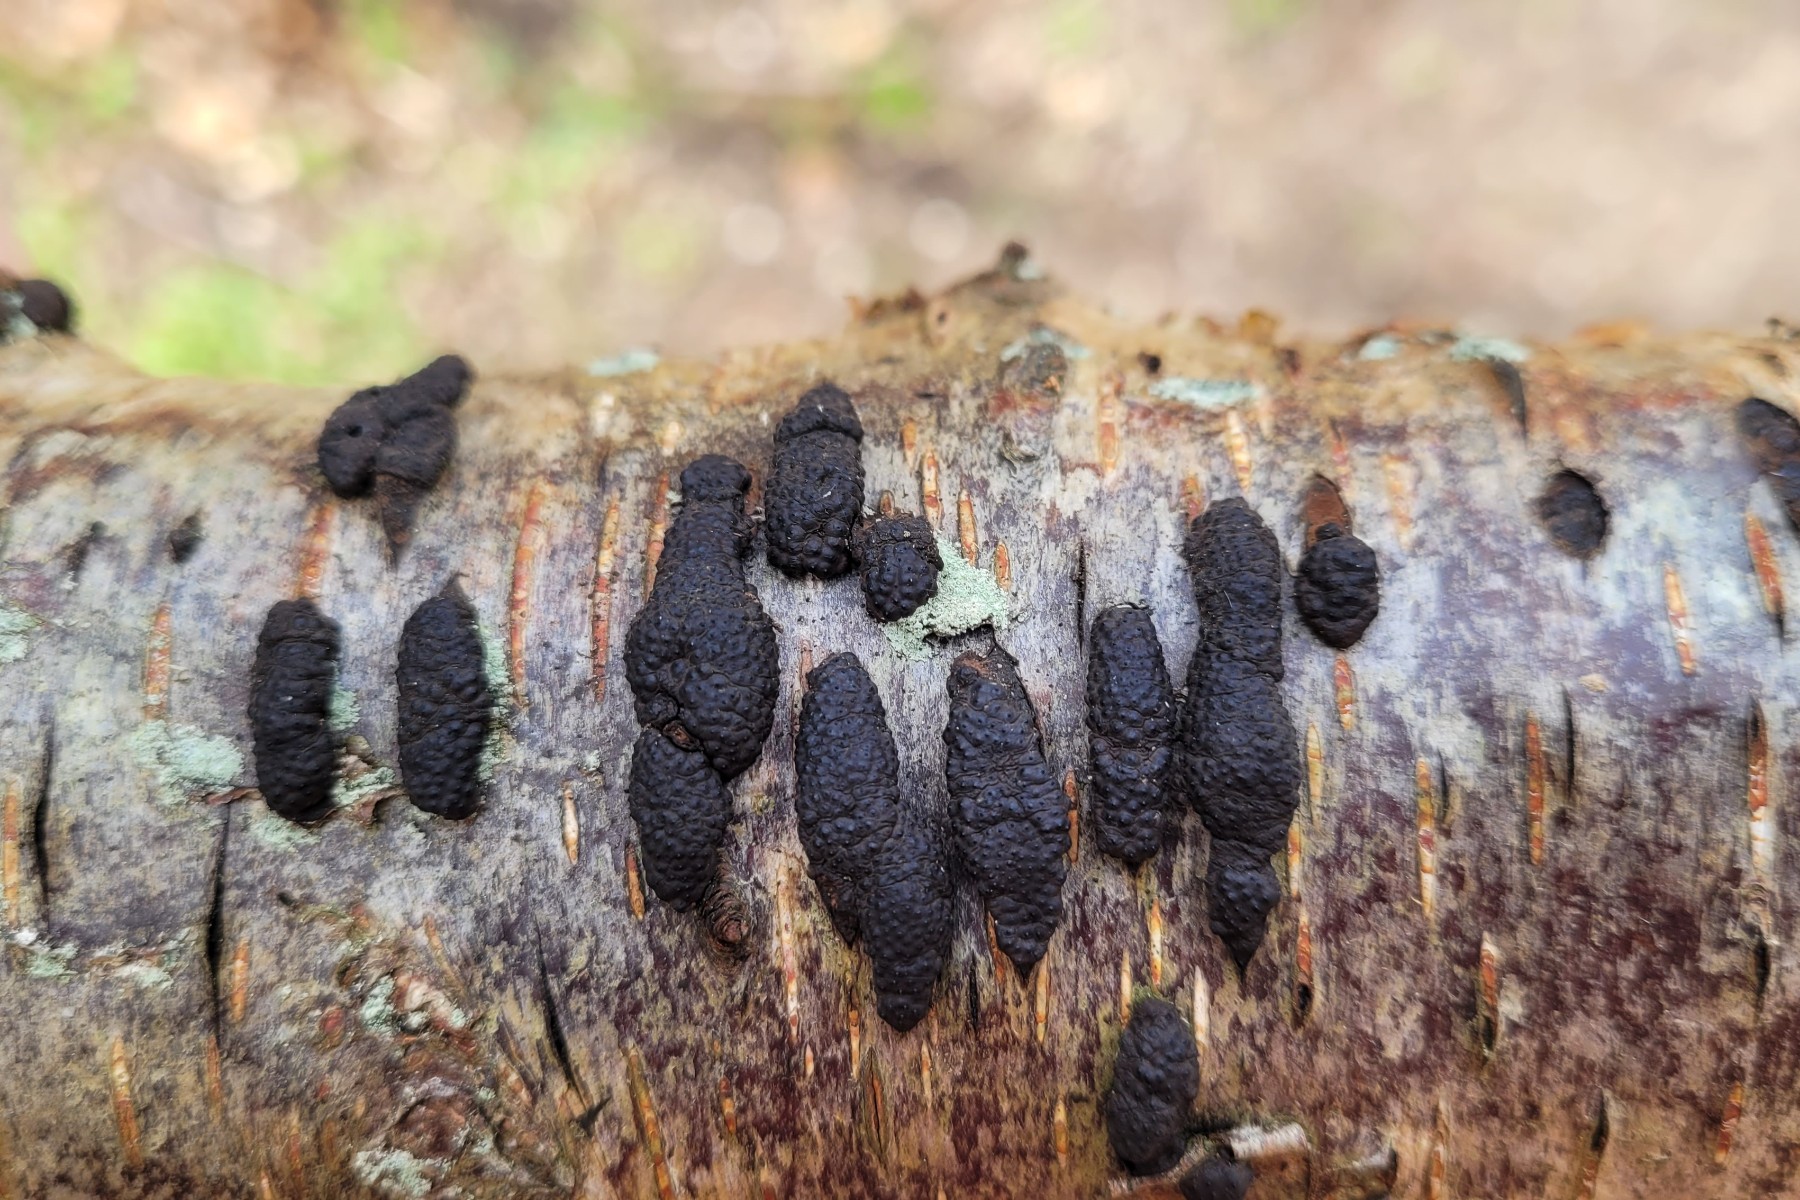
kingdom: Fungi
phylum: Ascomycota
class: Sordariomycetes
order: Xylariales
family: Hypoxylaceae
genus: Jackrogersella
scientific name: Jackrogersella multiformis
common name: foranderlig kulbær
